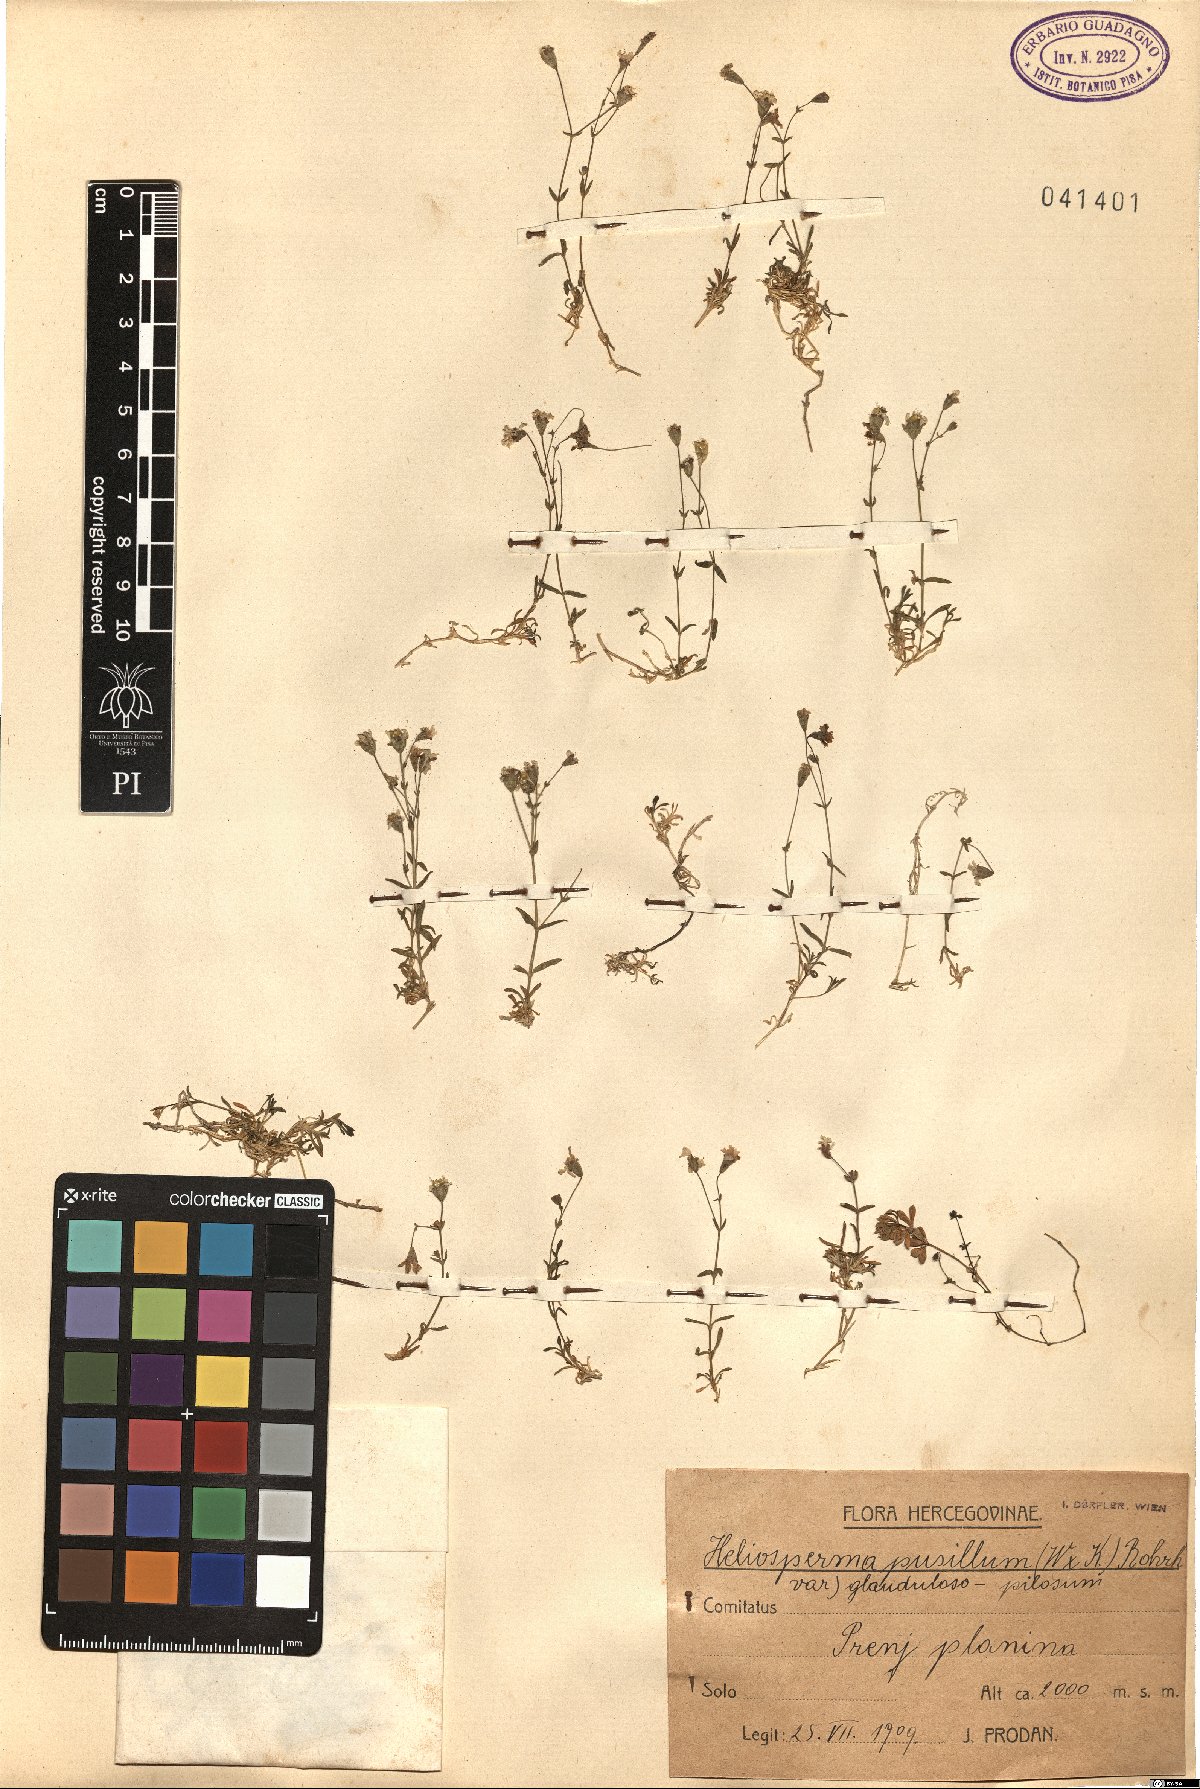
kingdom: Plantae
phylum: Tracheophyta
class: Magnoliopsida
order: Caryophyllales
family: Caryophyllaceae
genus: Heliosperma
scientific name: Heliosperma pusillum
